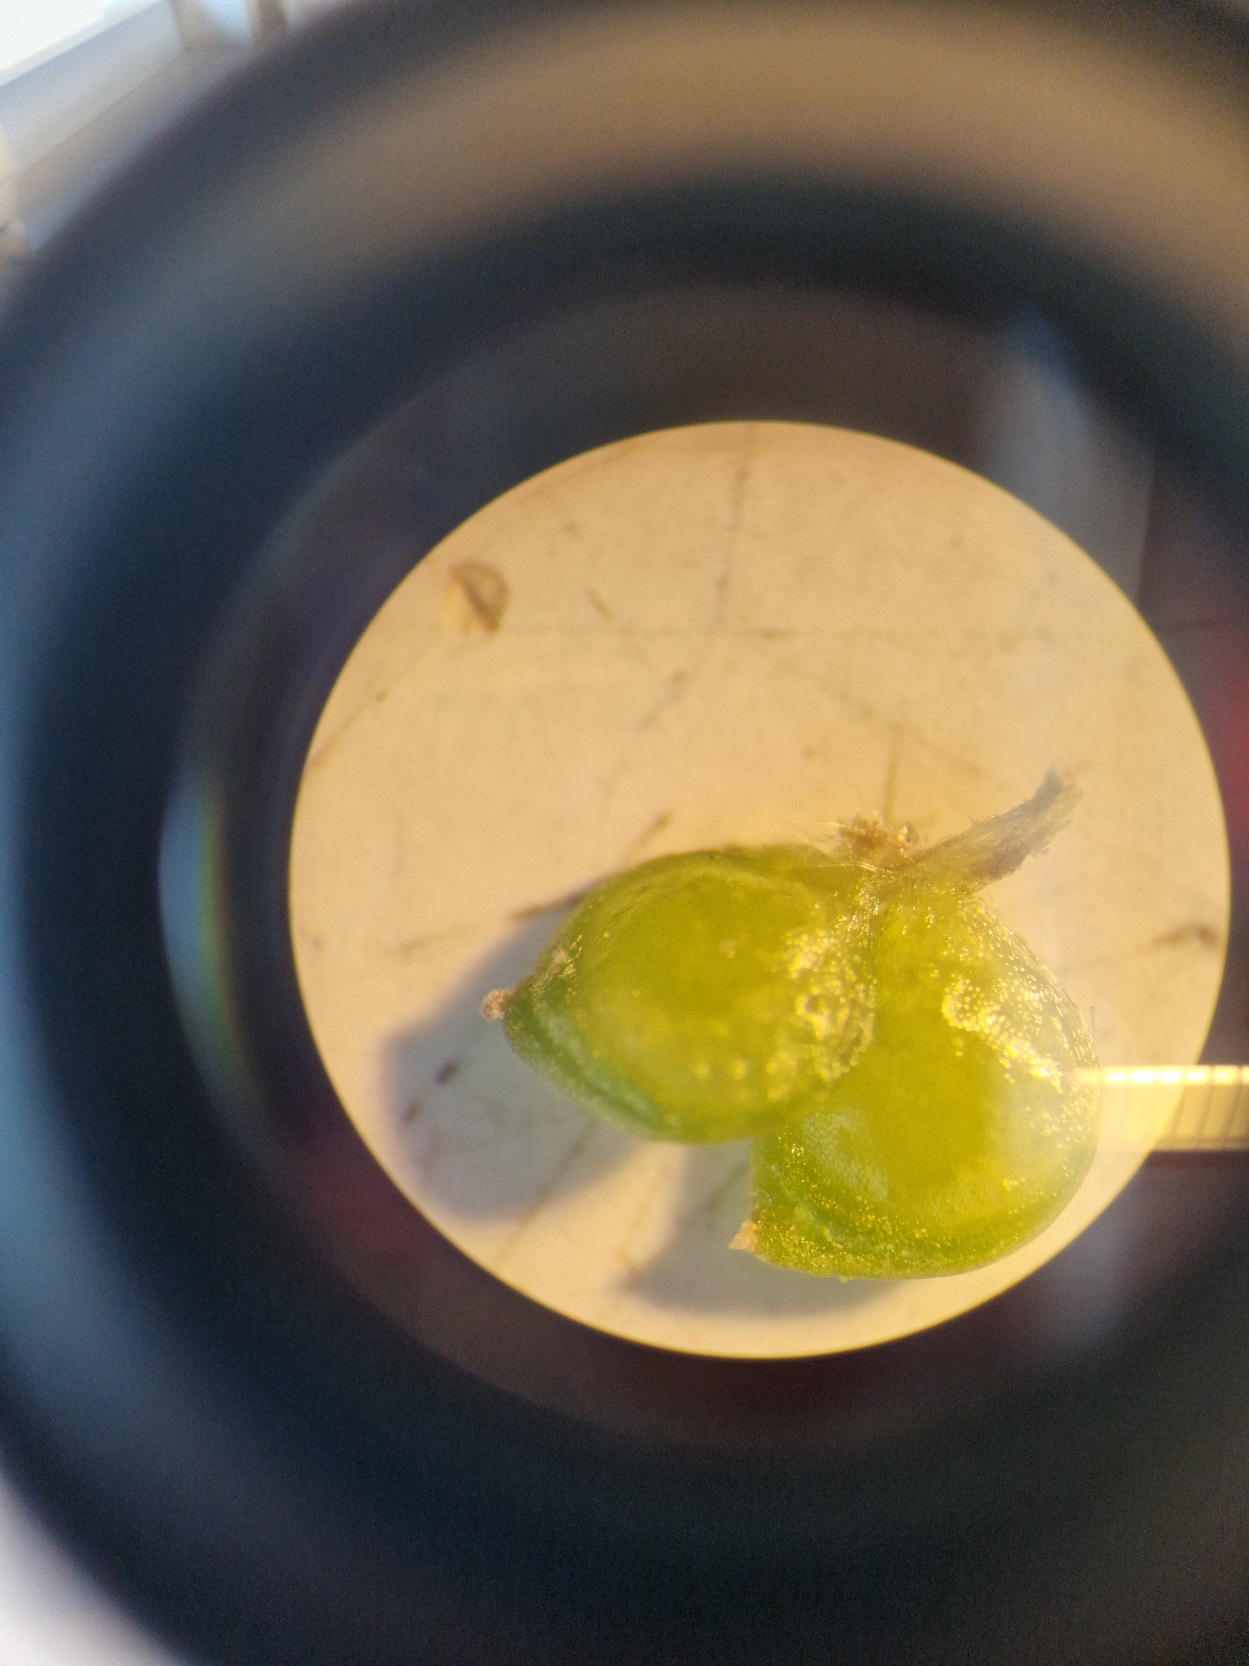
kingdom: Plantae
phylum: Tracheophyta
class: Magnoliopsida
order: Ranunculales
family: Ranunculaceae
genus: Ranunculus
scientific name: Ranunculus sardous
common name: Stivhåret ranunkel
